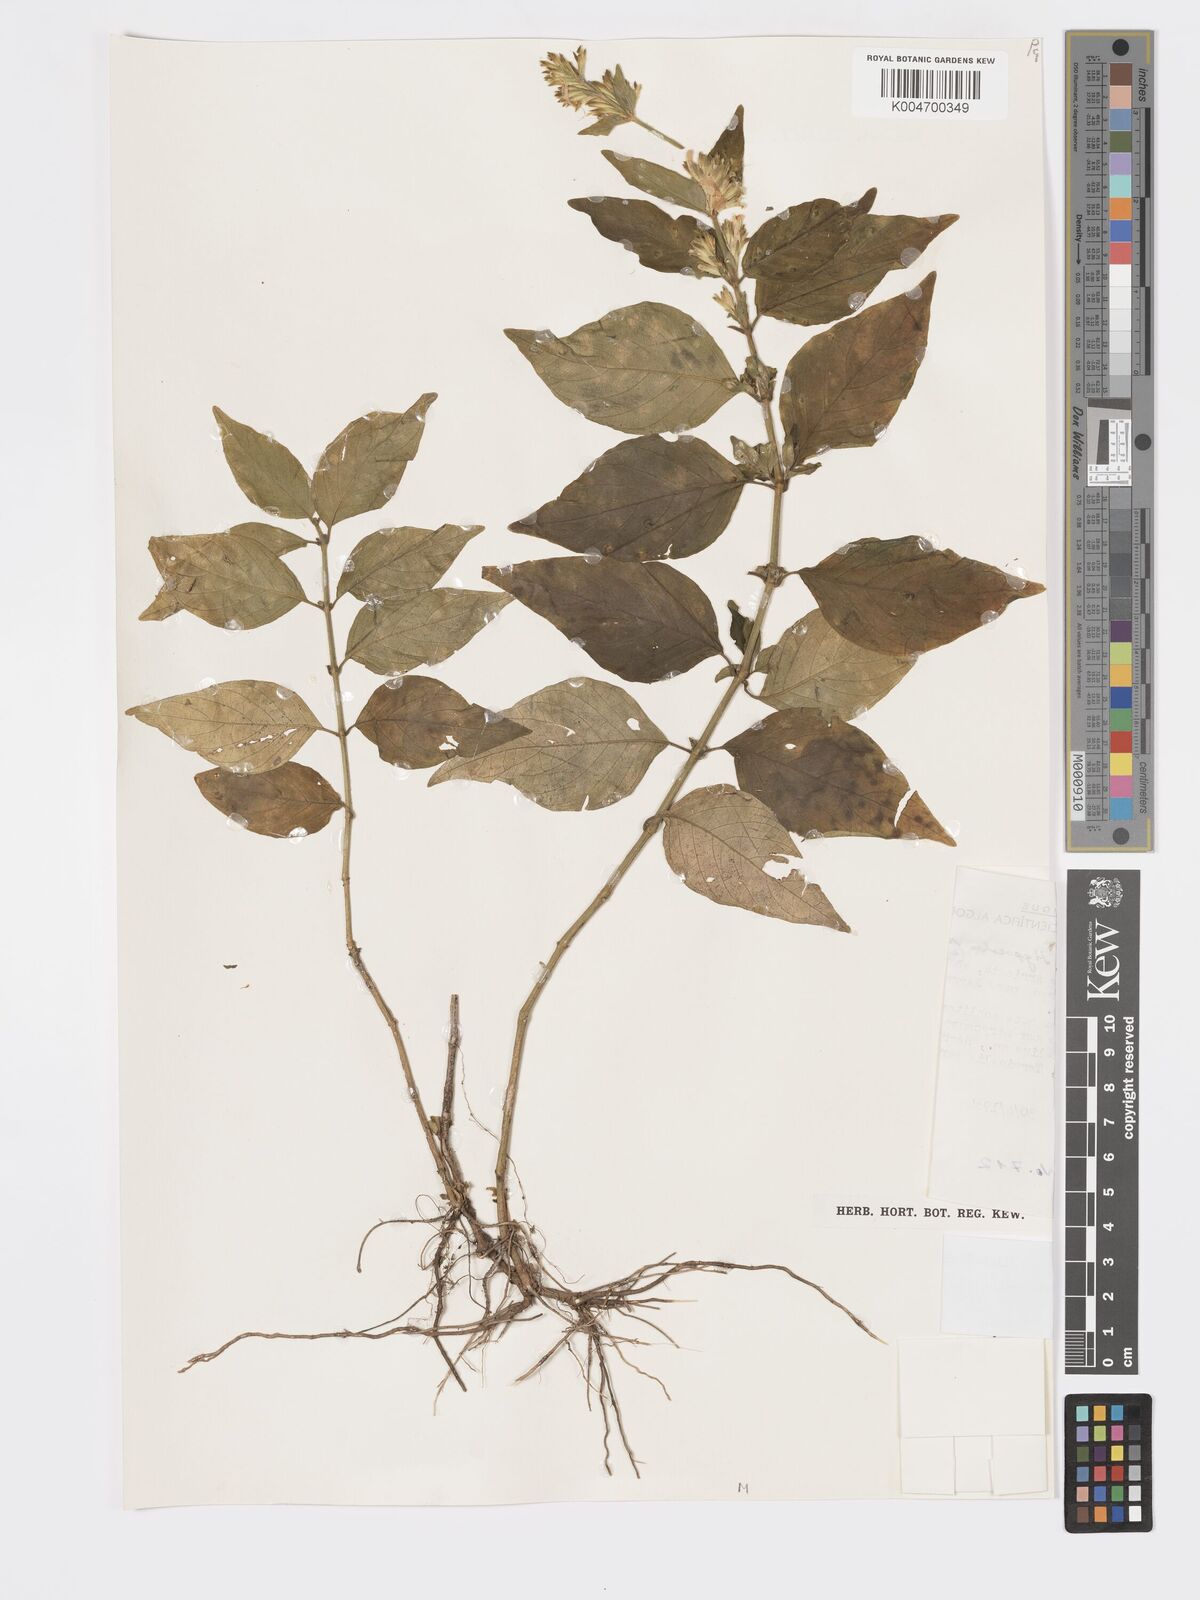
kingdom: Plantae
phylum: Tracheophyta
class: Magnoliopsida
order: Lamiales
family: Acanthaceae
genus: Hypoestes
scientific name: Hypoestes forskaolii
